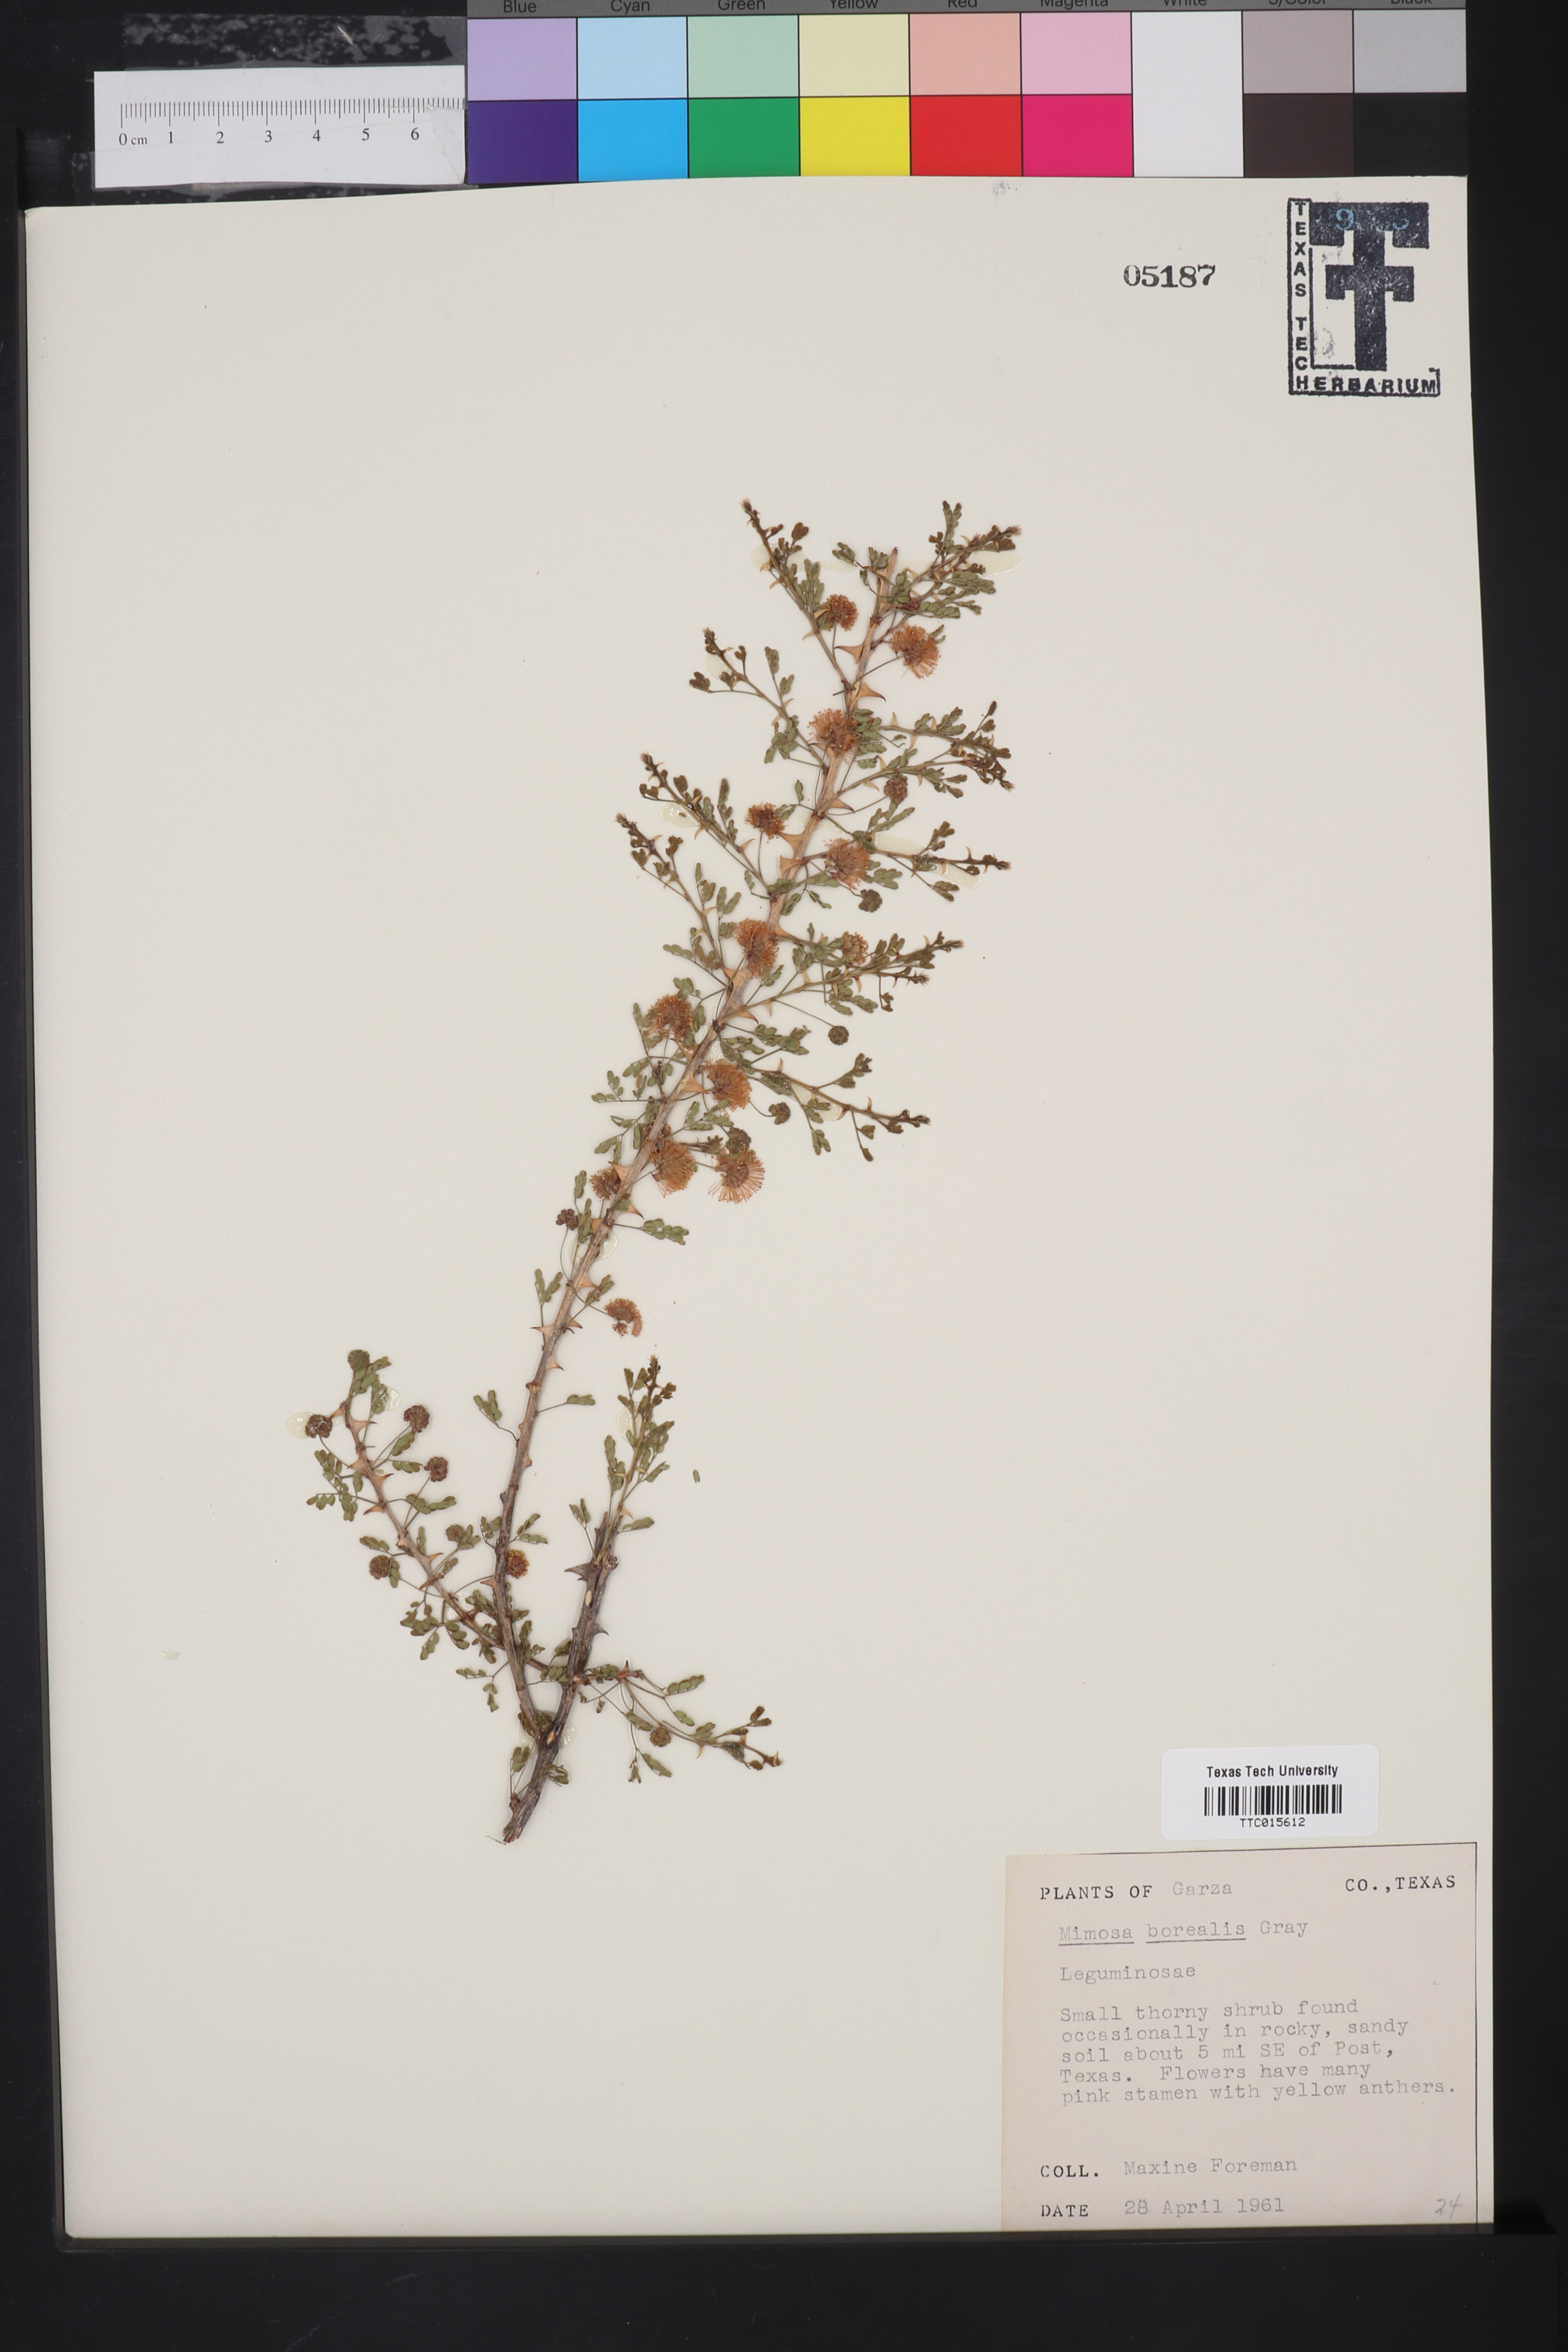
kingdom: Plantae
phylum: Tracheophyta
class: Magnoliopsida
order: Fabales
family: Fabaceae
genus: Mimosa
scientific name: Mimosa borealis
